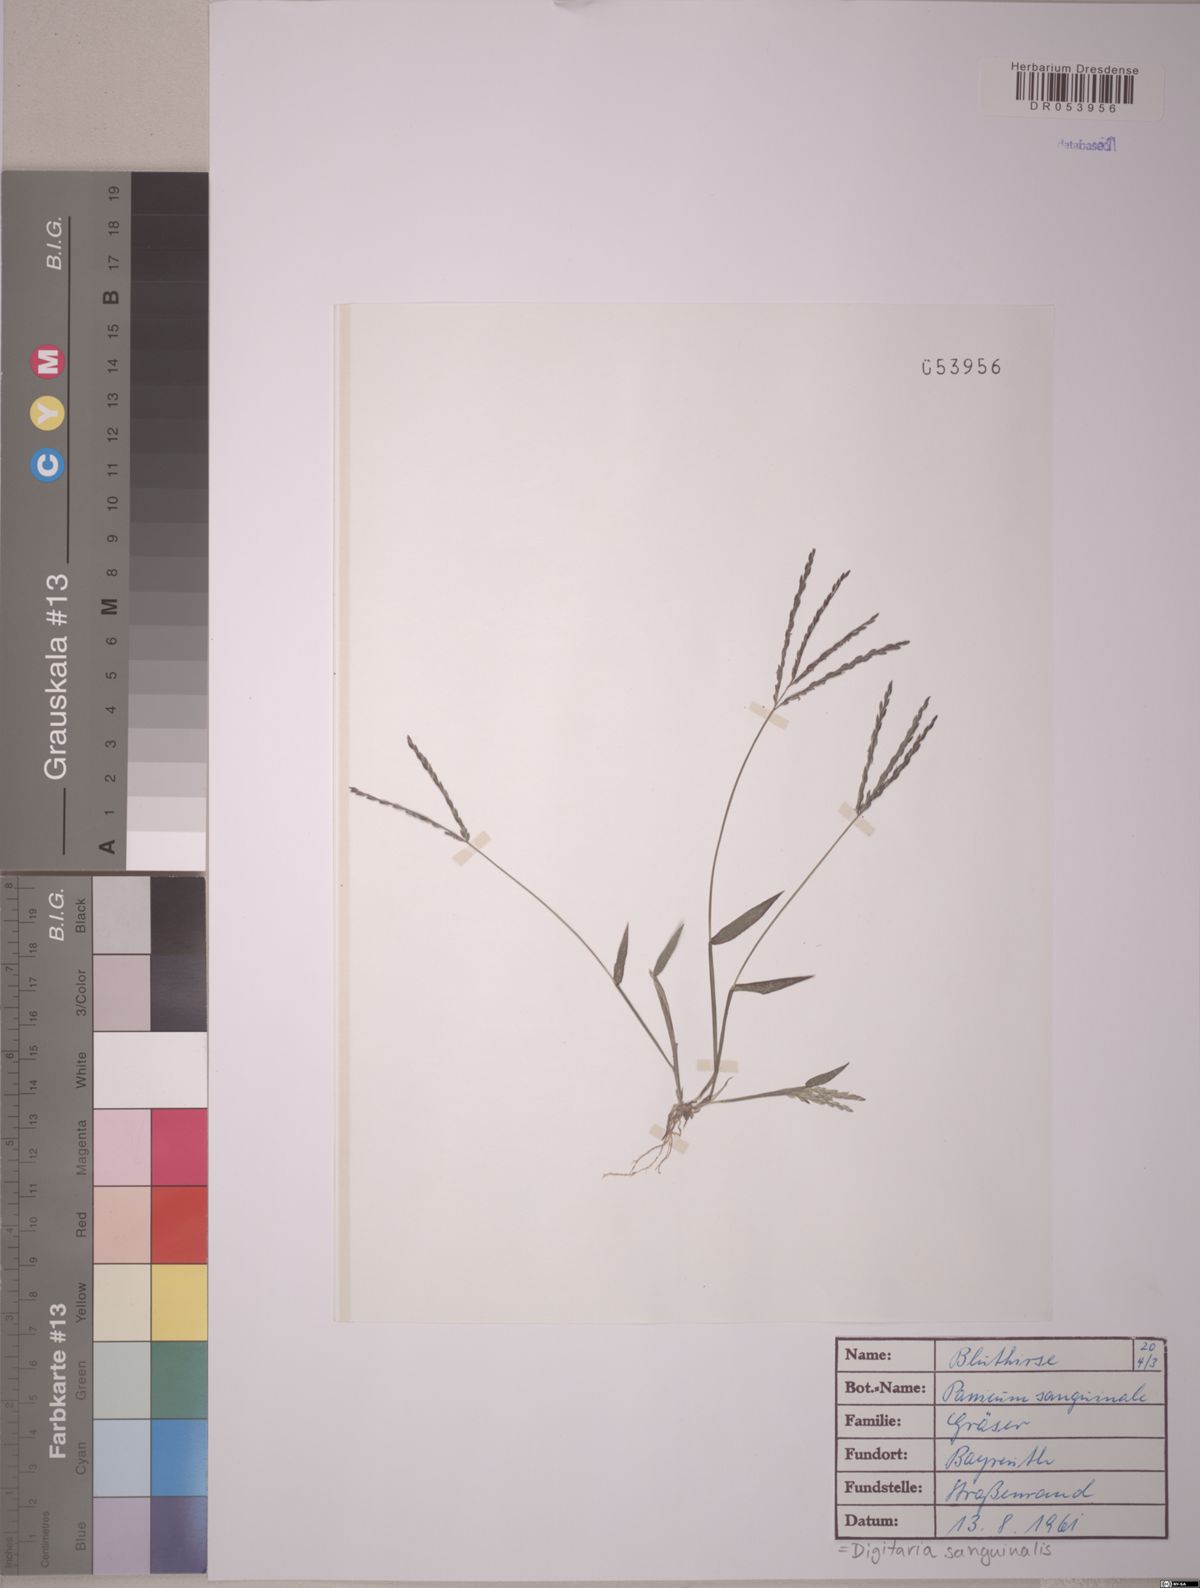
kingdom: Plantae
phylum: Tracheophyta
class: Liliopsida
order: Poales
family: Poaceae
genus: Digitaria
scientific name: Digitaria sanguinalis
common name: Hairy crabgrass
